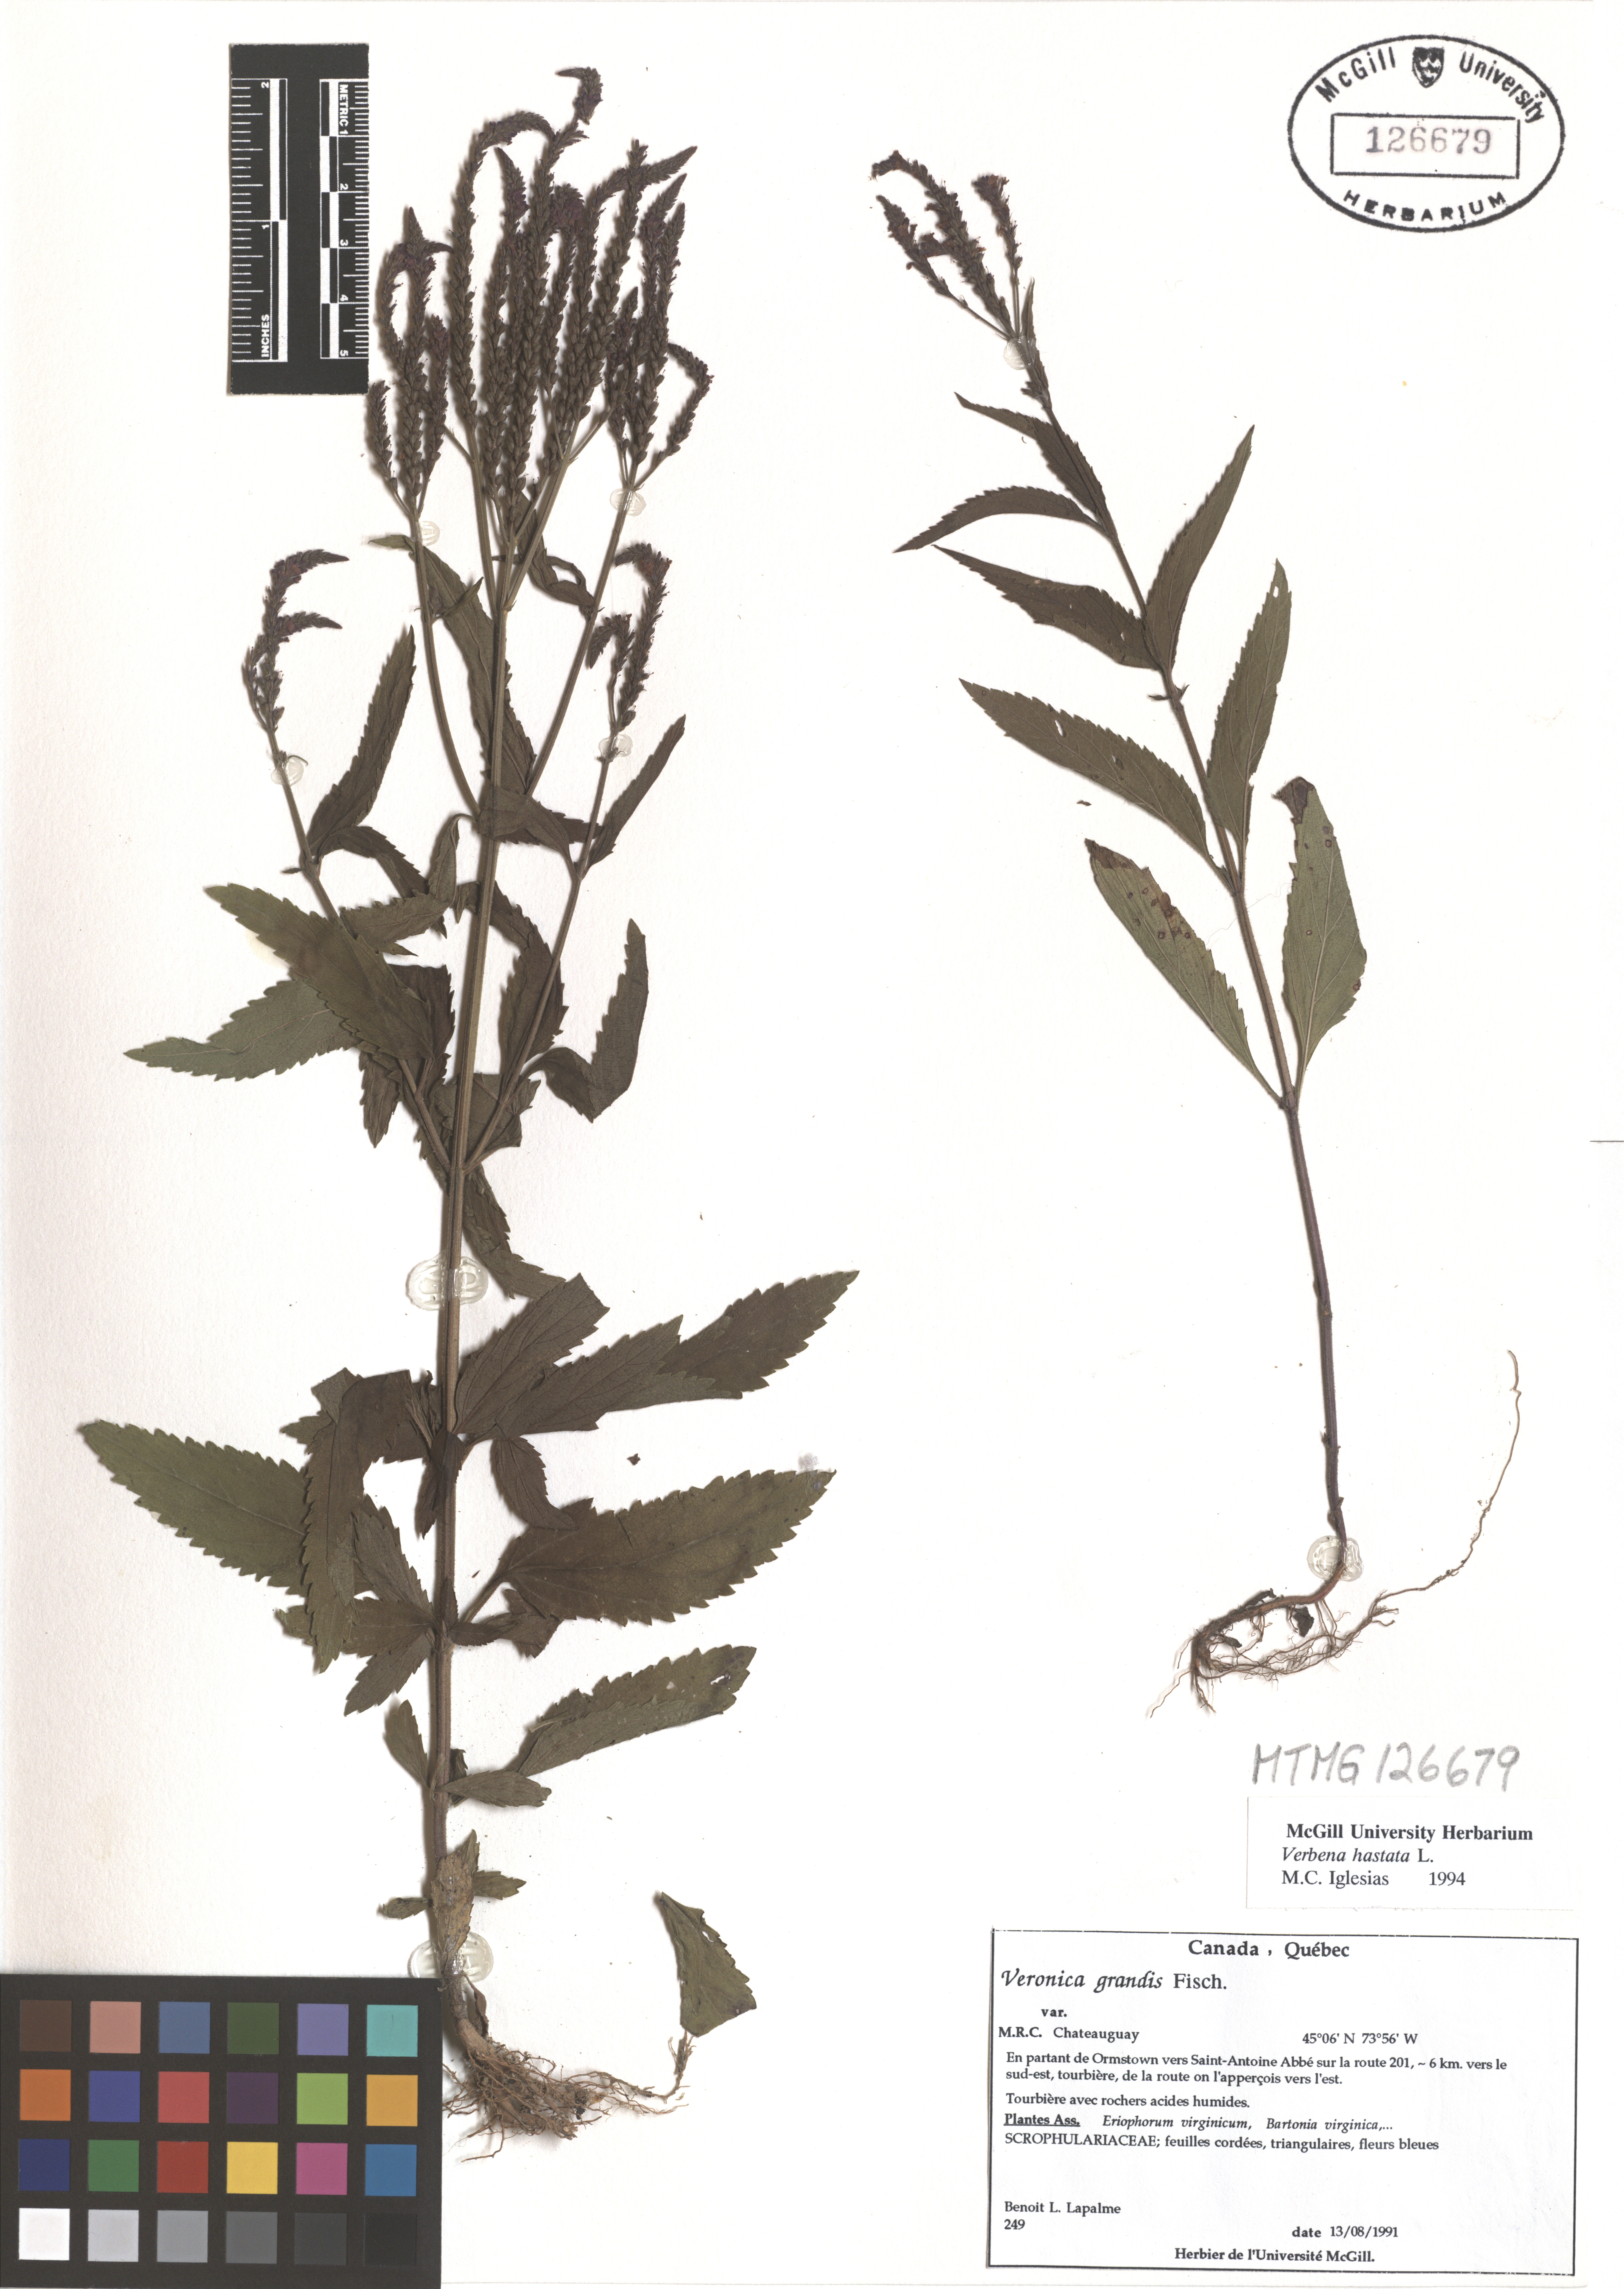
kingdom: Plantae
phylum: Tracheophyta
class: Magnoliopsida
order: Lamiales
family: Verbenaceae
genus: Verbena
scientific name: Verbena hastata
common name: American blue vervain
